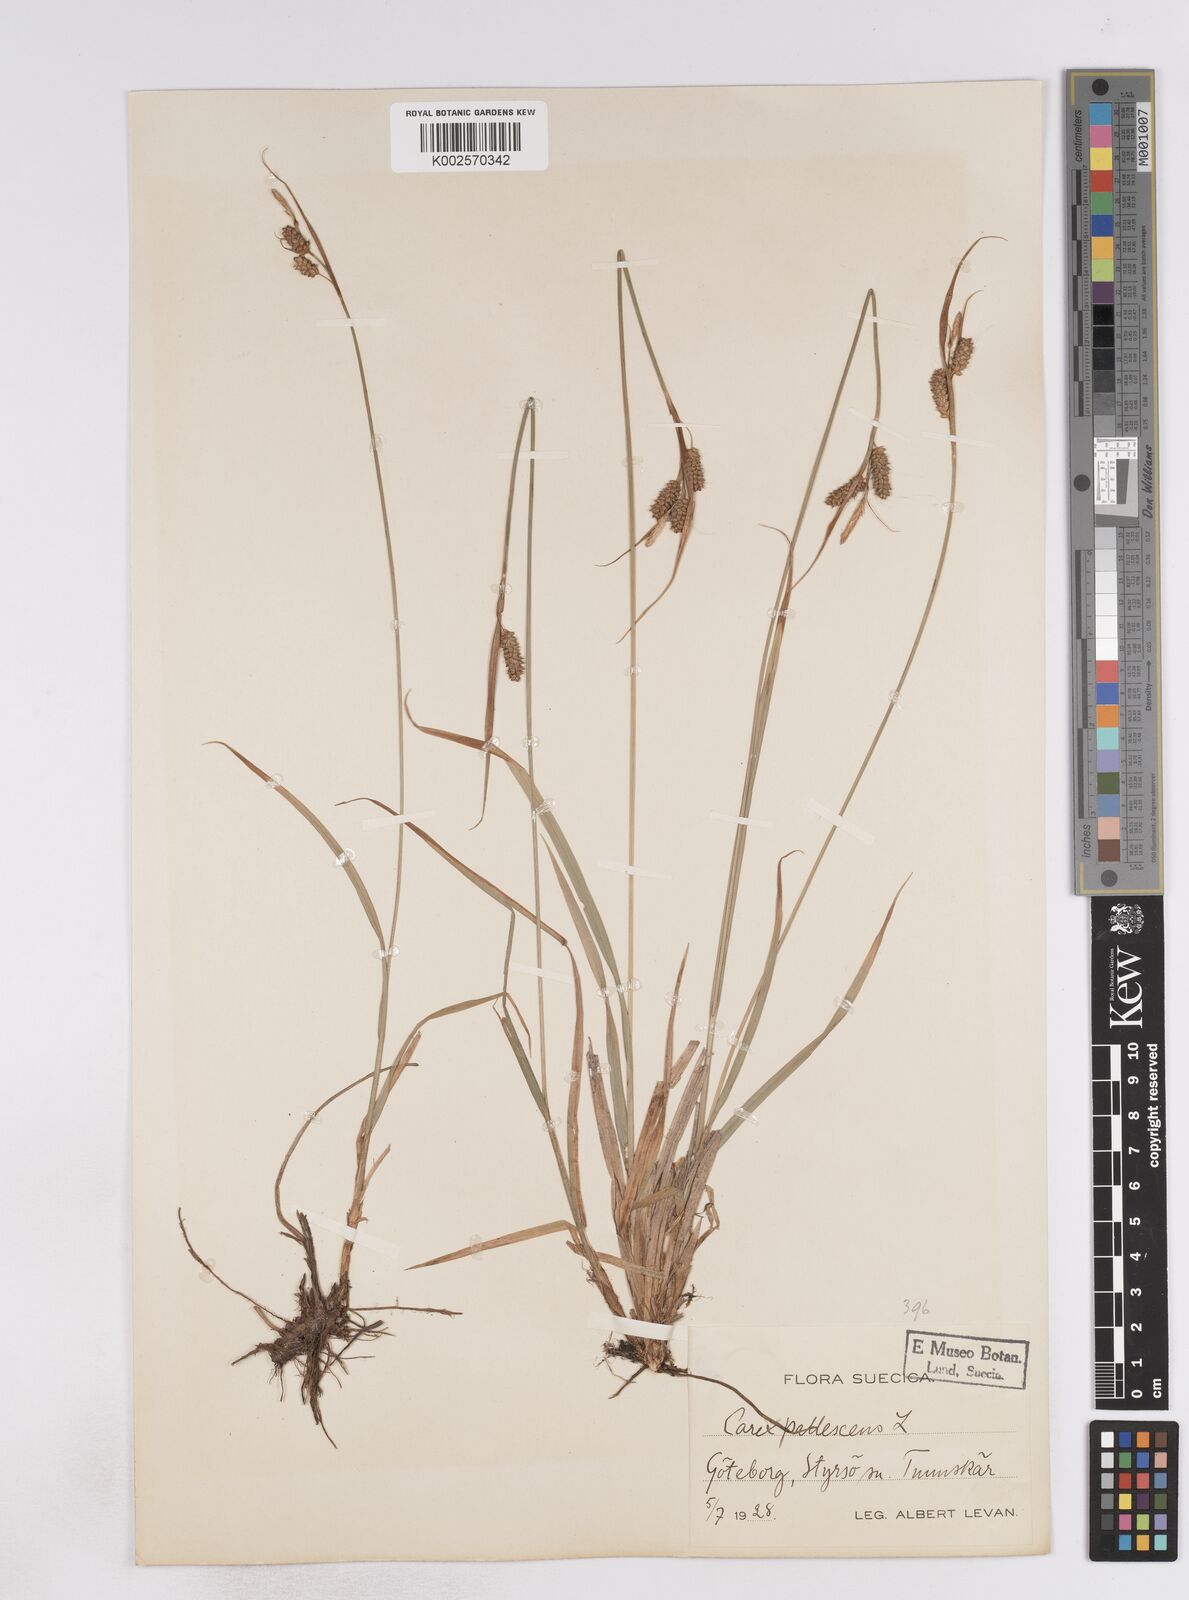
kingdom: Plantae
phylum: Tracheophyta
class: Liliopsida
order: Poales
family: Cyperaceae
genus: Carex
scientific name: Carex pallescens
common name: Pale sedge
